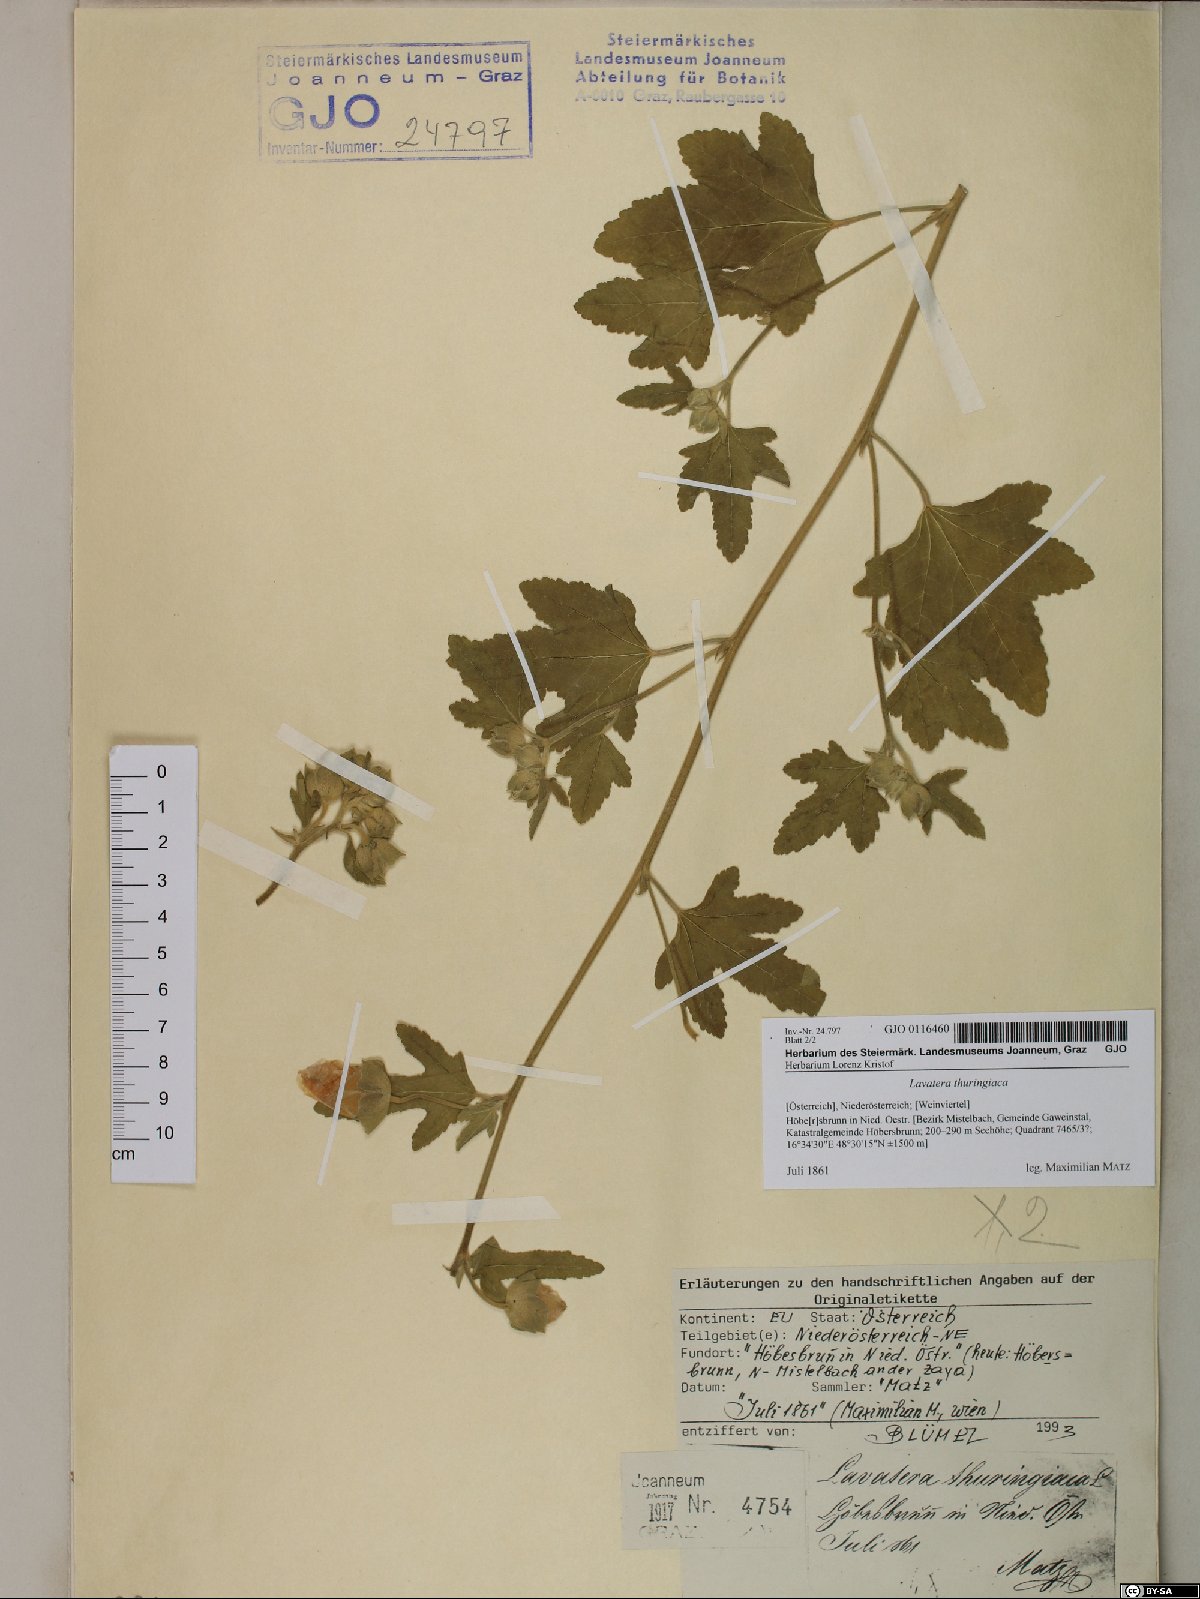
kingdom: Plantae
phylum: Tracheophyta
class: Magnoliopsida
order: Malvales
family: Malvaceae
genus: Malva
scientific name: Malva thuringiaca
